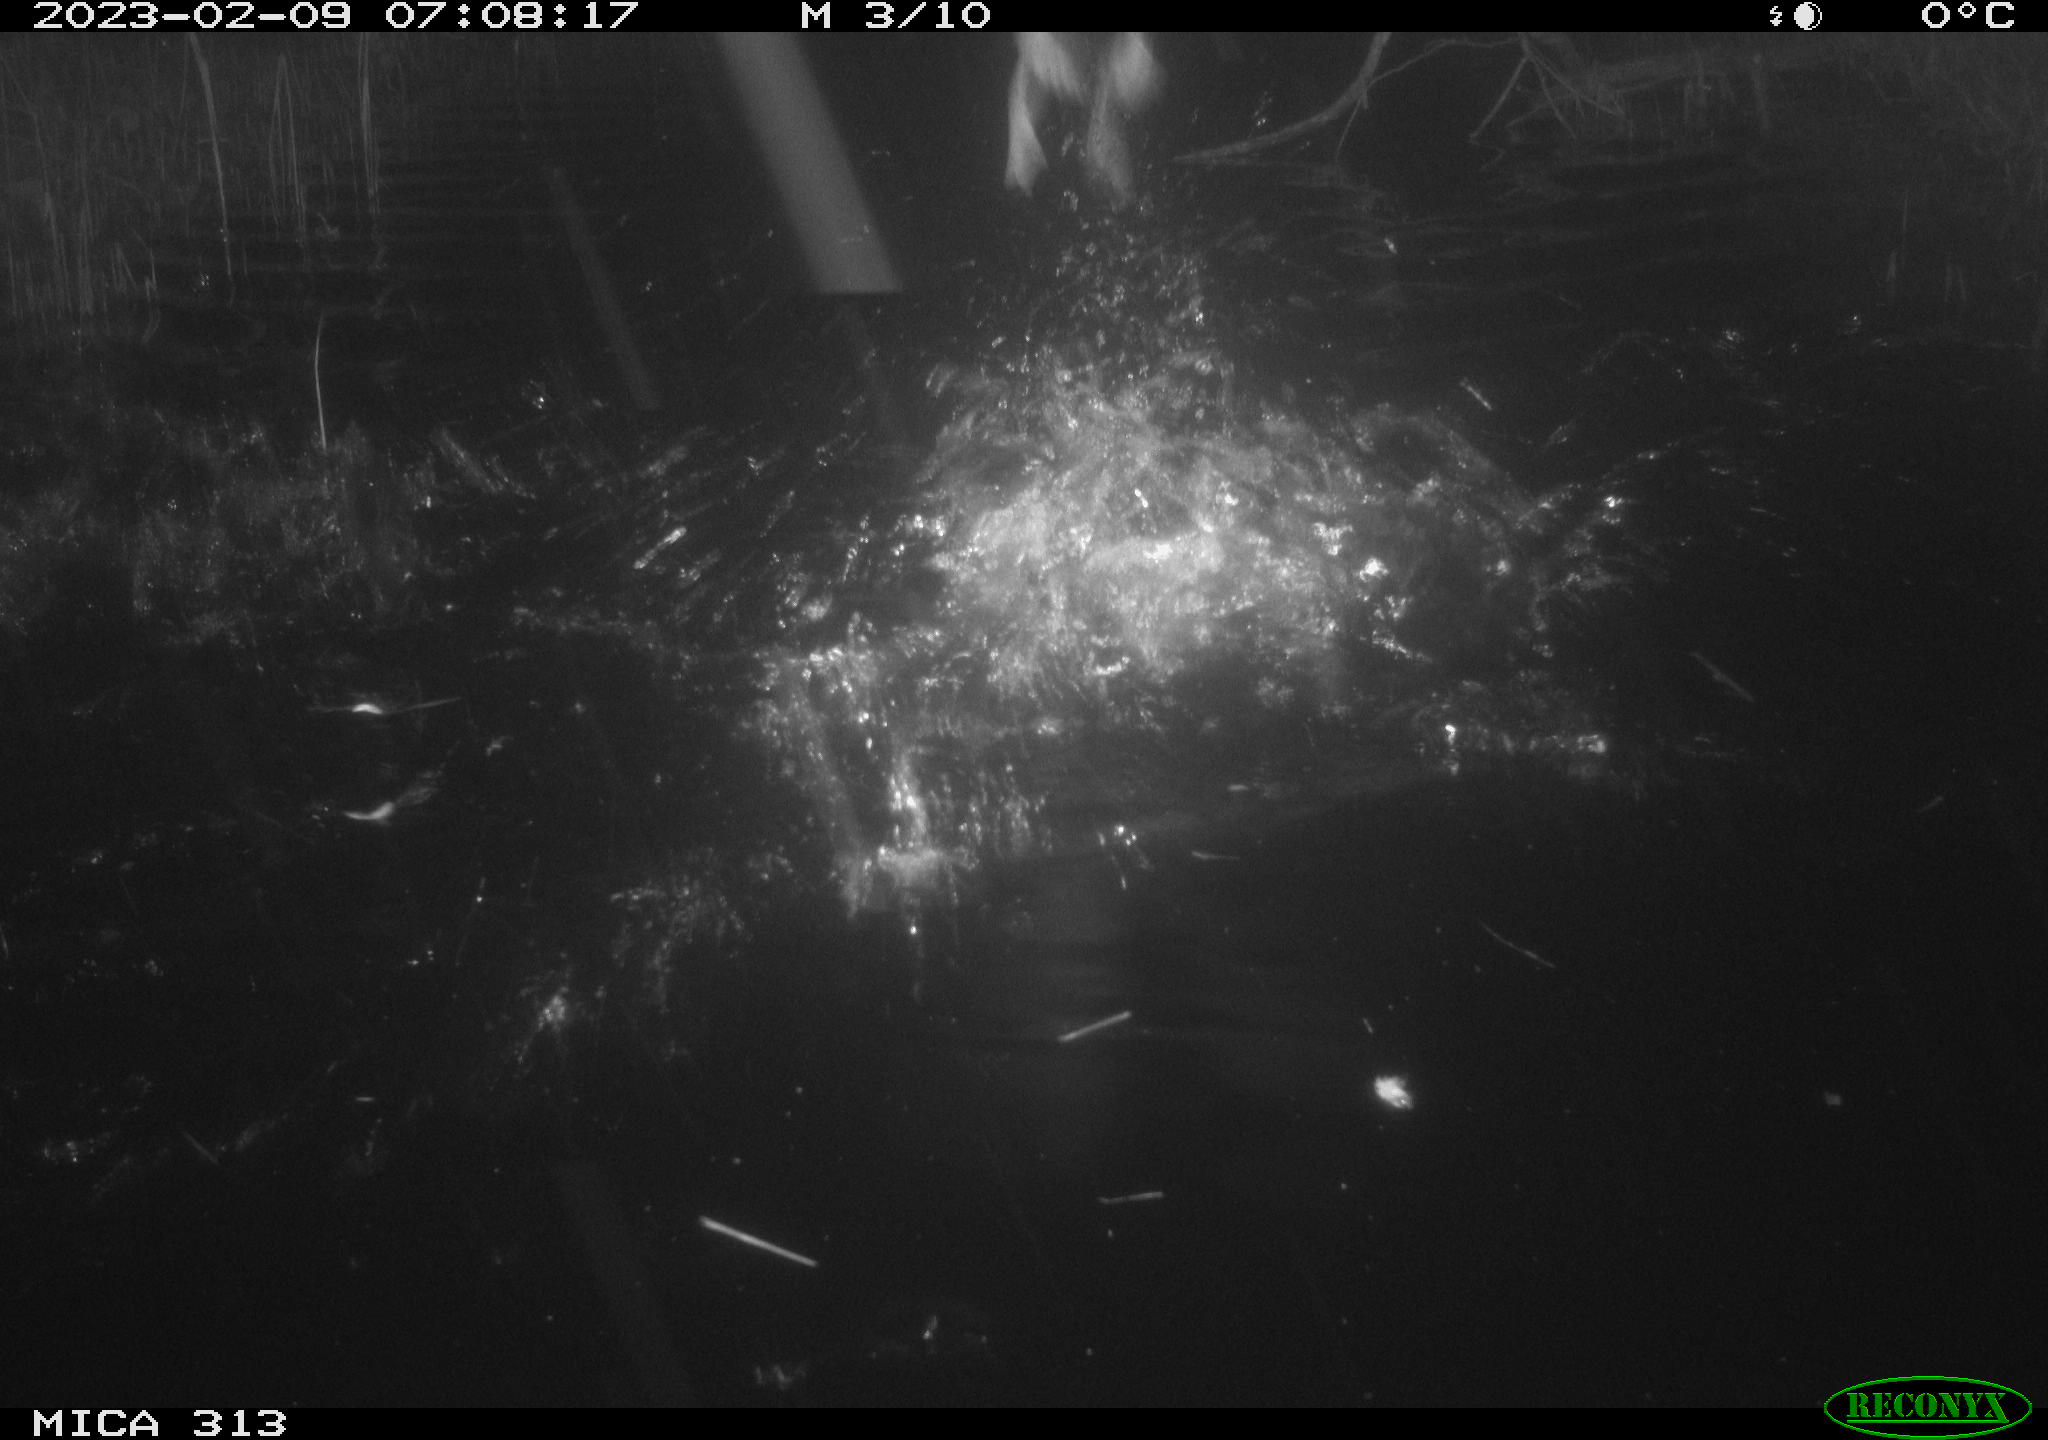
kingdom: Animalia
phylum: Chordata
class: Aves
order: Anseriformes
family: Anatidae
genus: Anas
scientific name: Anas
